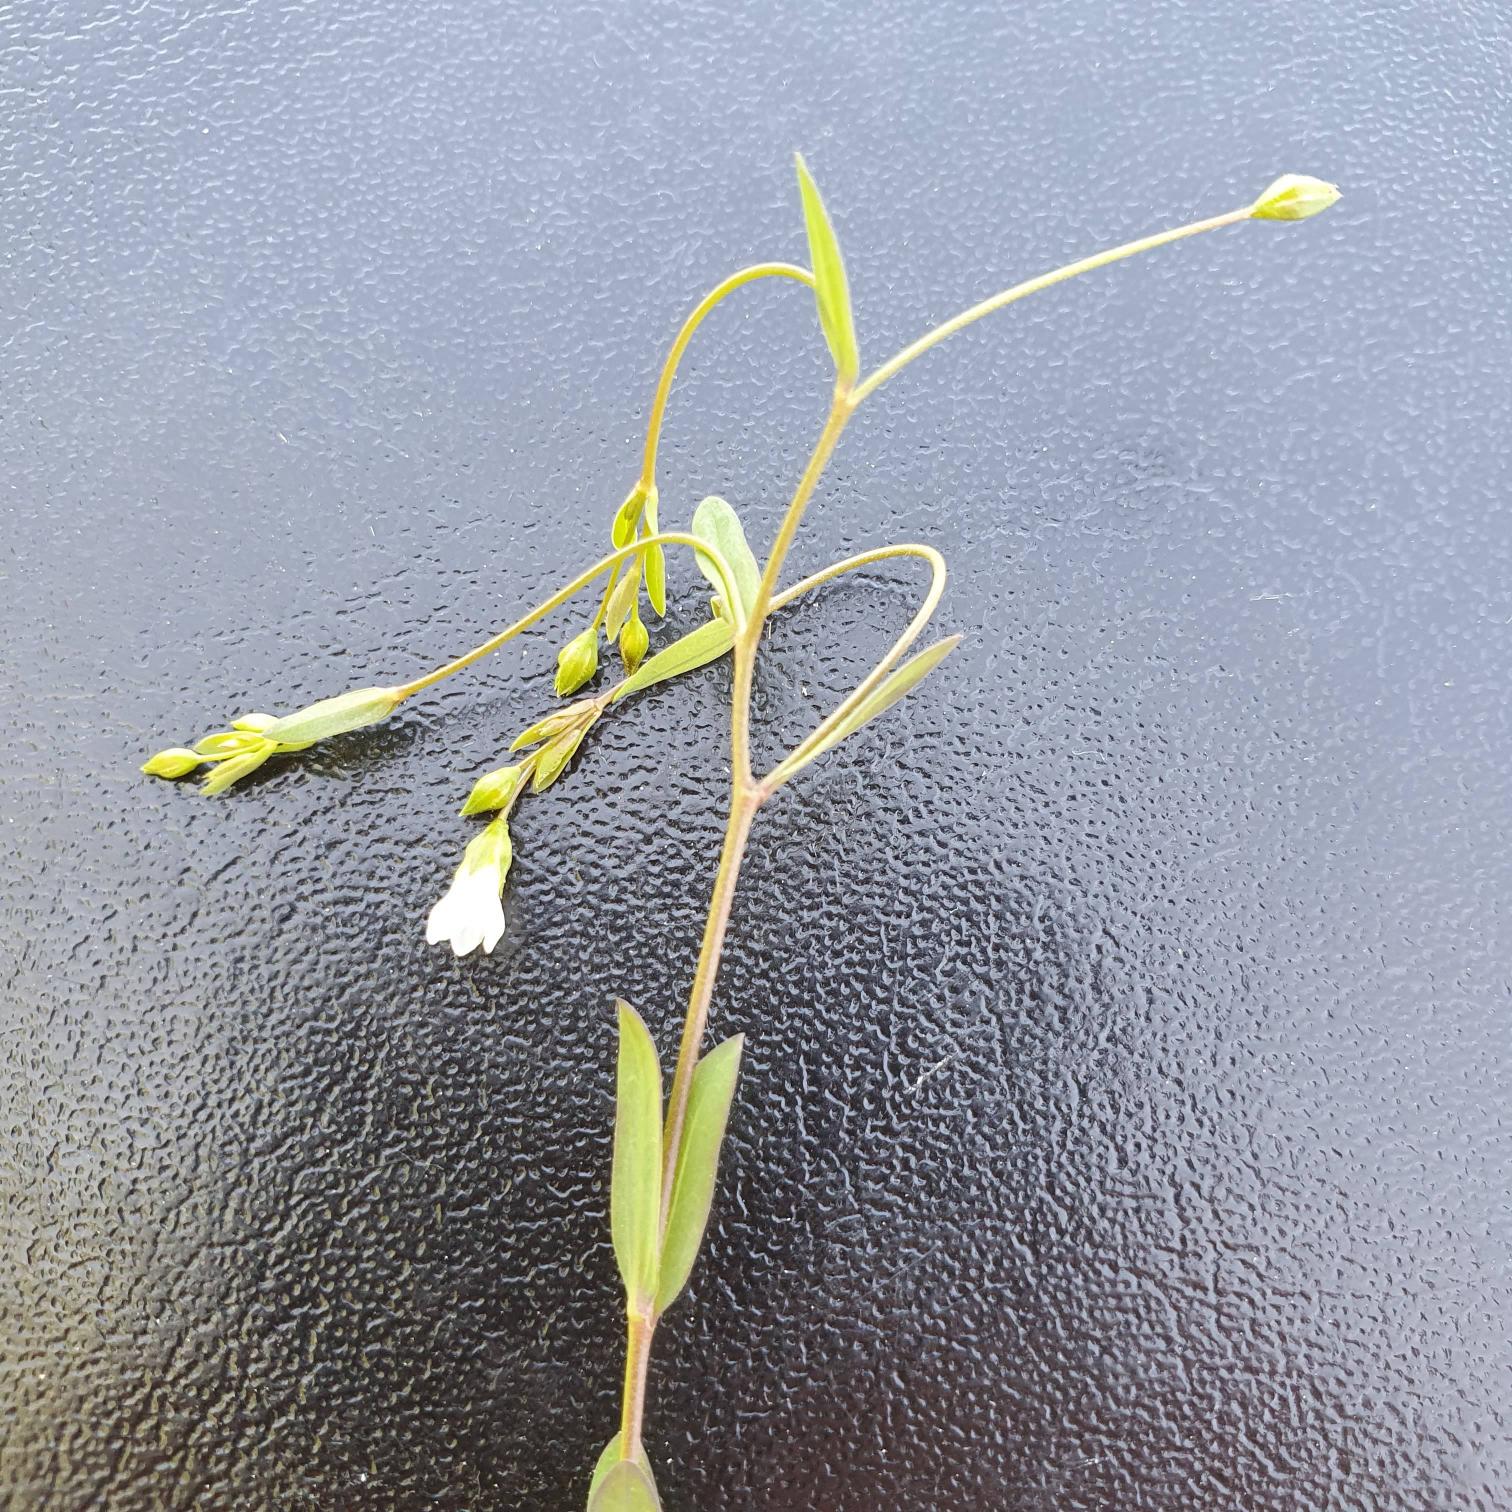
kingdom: Plantae
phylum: Tracheophyta
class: Magnoliopsida
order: Malpighiales
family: Linaceae
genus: Linum
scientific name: Linum catharticum
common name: Vild hør
